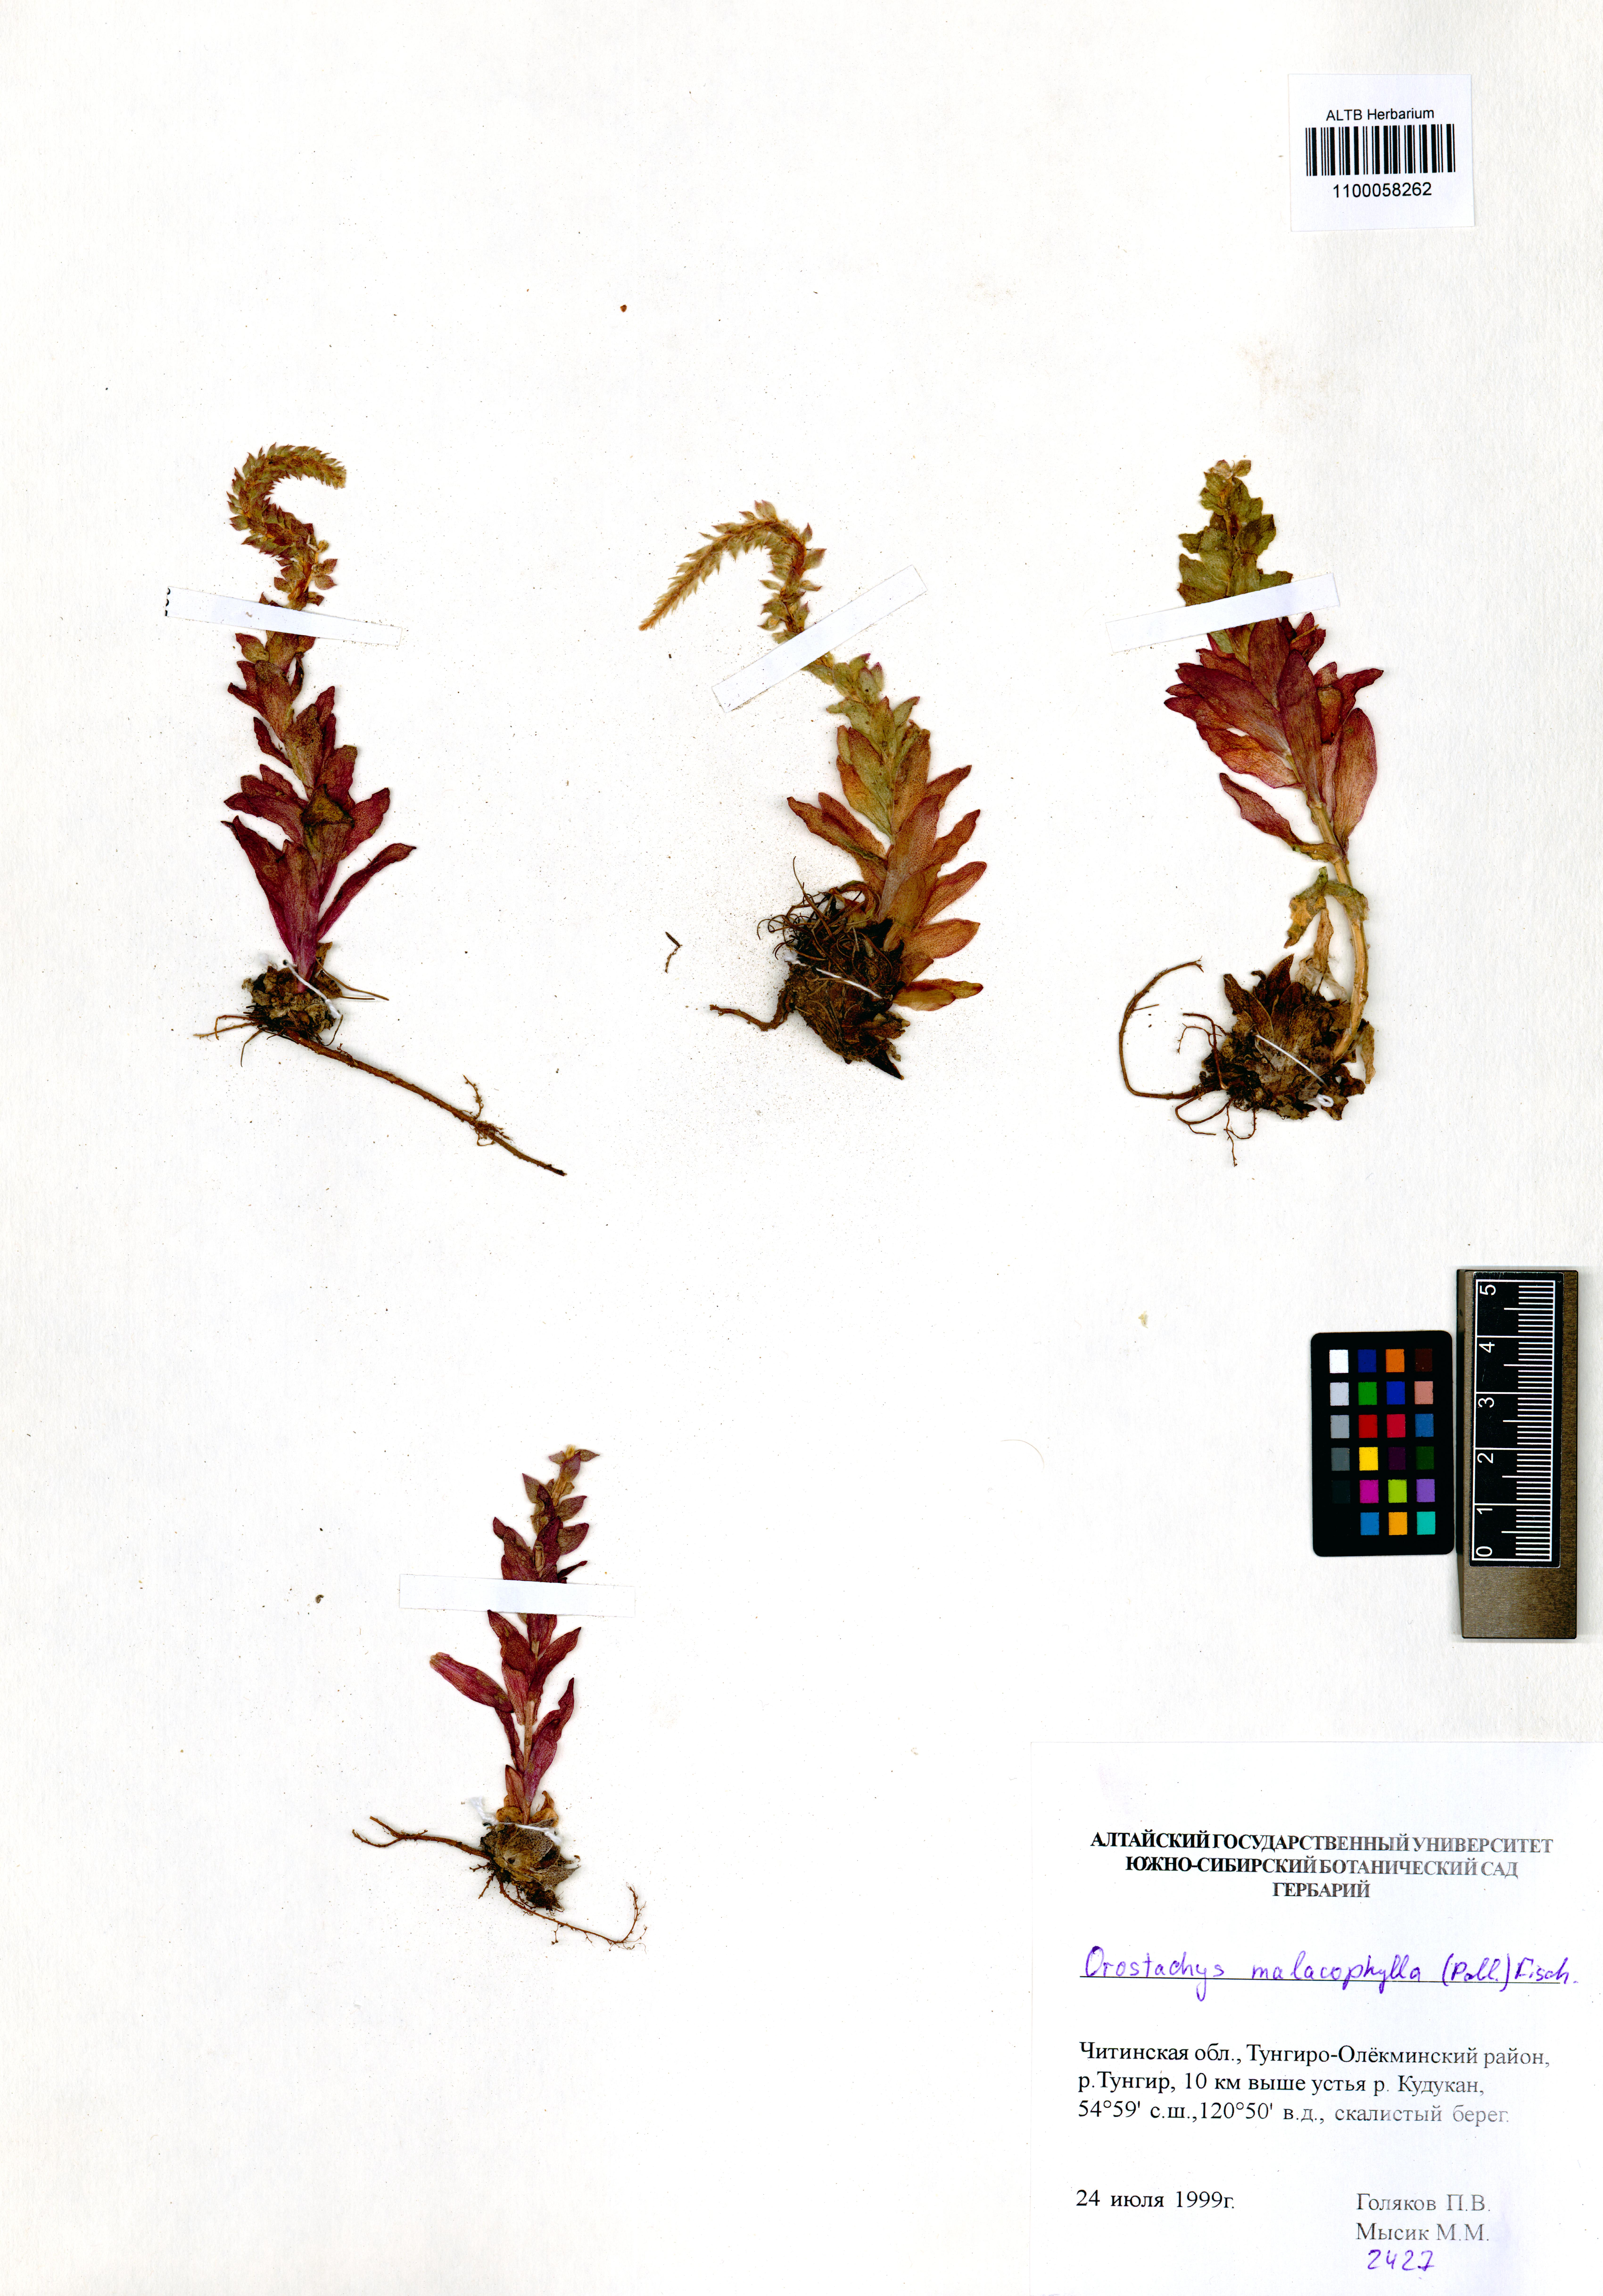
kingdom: Plantae
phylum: Tracheophyta
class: Magnoliopsida
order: Saxifragales
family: Crassulaceae
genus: Orostachys
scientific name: Orostachys malacophylla
